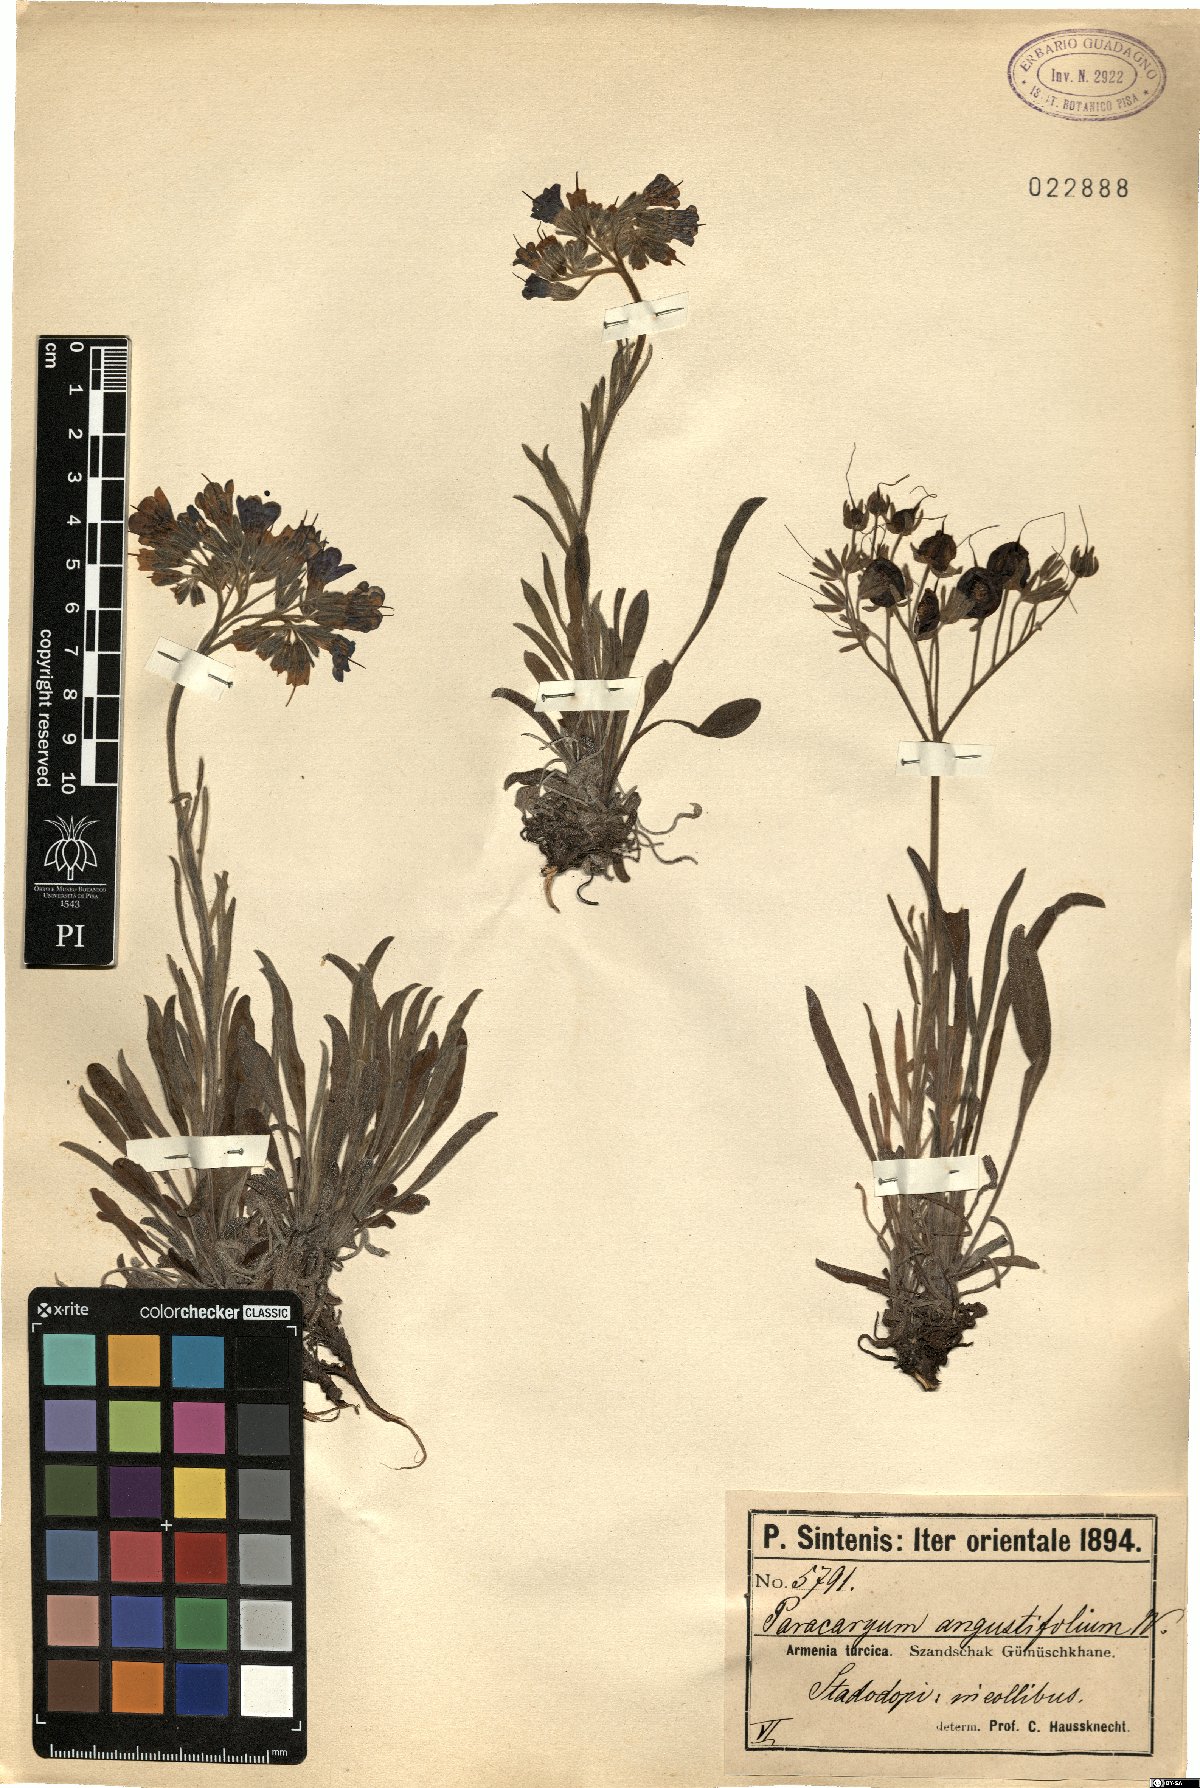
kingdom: Plantae
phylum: Tracheophyta
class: Magnoliopsida
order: Boraginales
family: Boraginaceae
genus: Paracaryum
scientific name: Paracaryum racemosum
